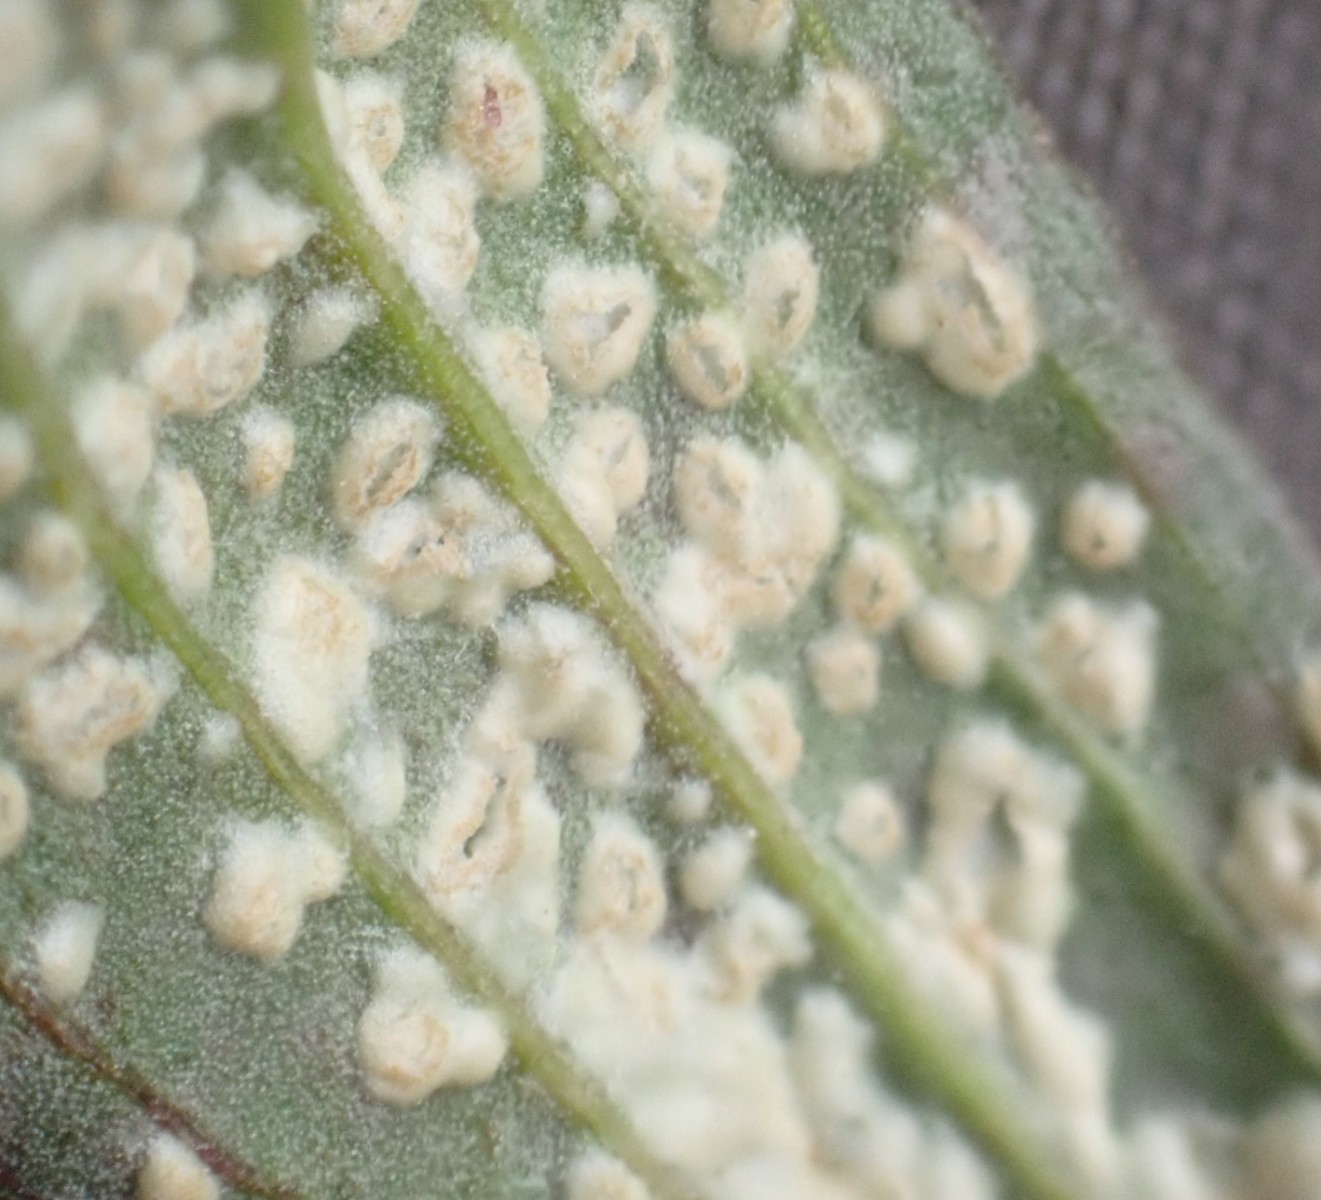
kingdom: Chromista
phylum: Oomycota
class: Peronosporea
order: Albuginales
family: Albuginaceae
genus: Pustula
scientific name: Pustula tragopogonis
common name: Sunflower white rust
